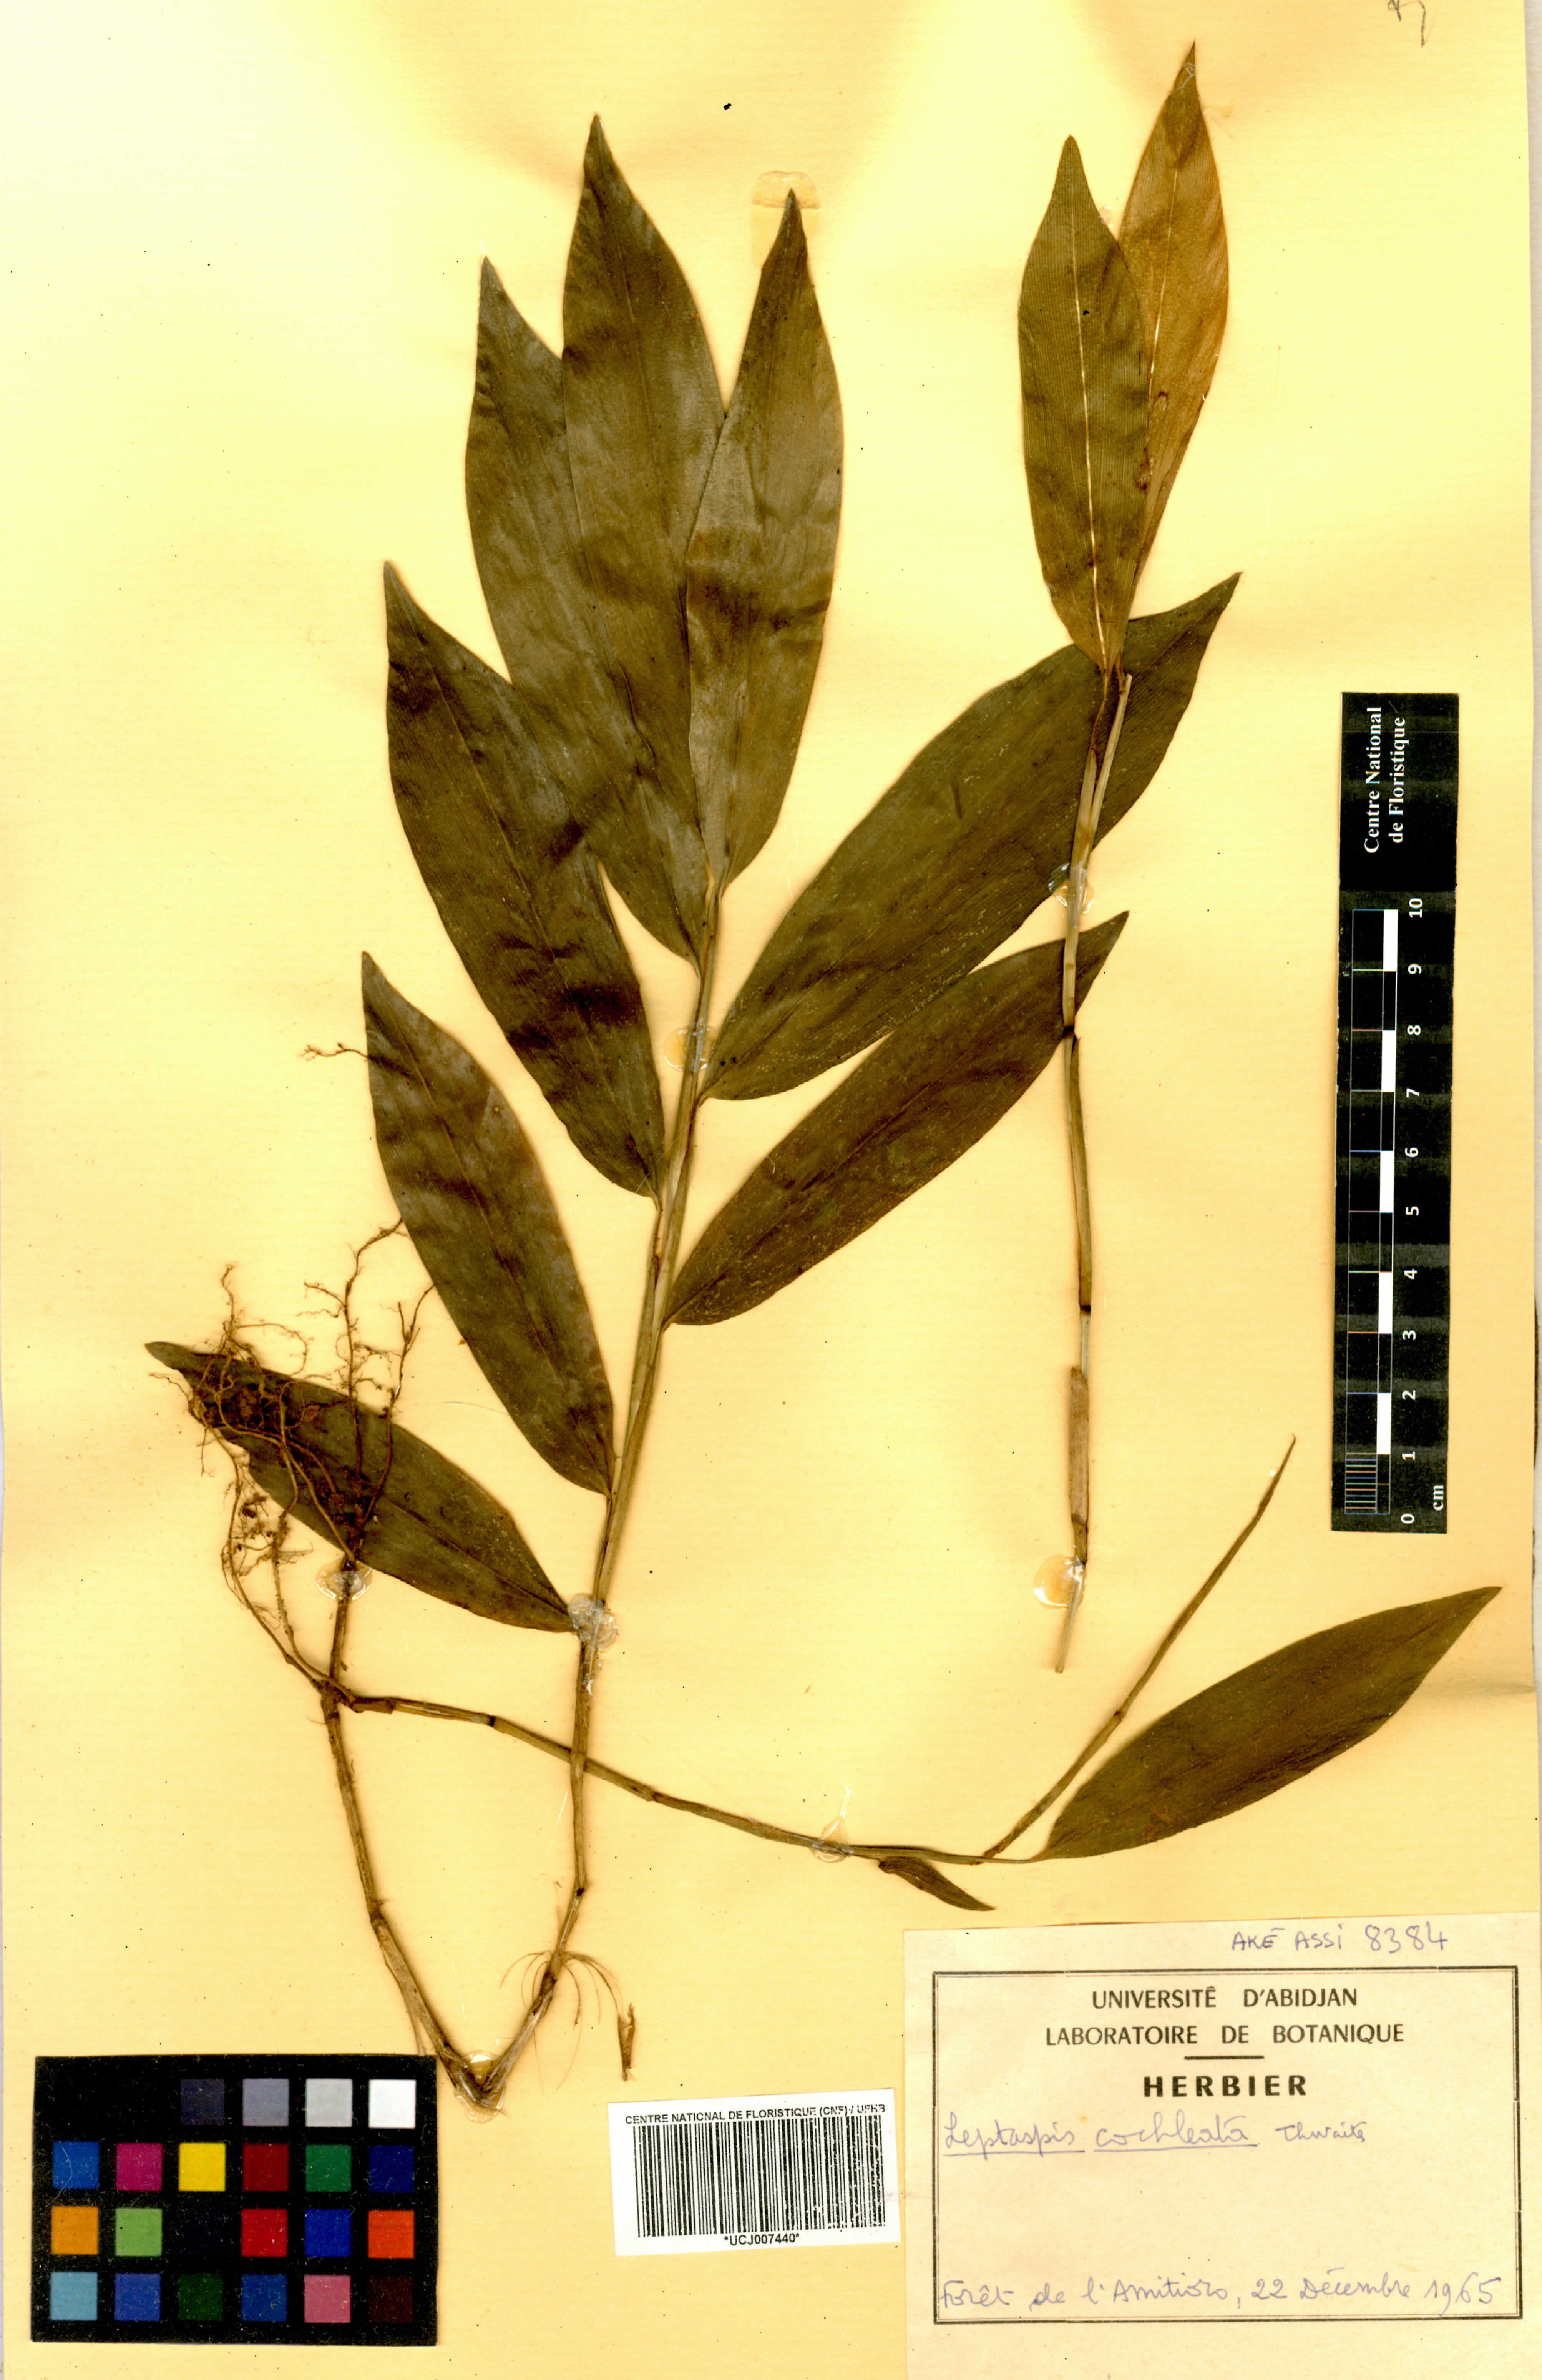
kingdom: Plantae
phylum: Tracheophyta
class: Liliopsida
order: Poales
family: Poaceae
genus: Leptaspis
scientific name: Leptaspis zeylanica
